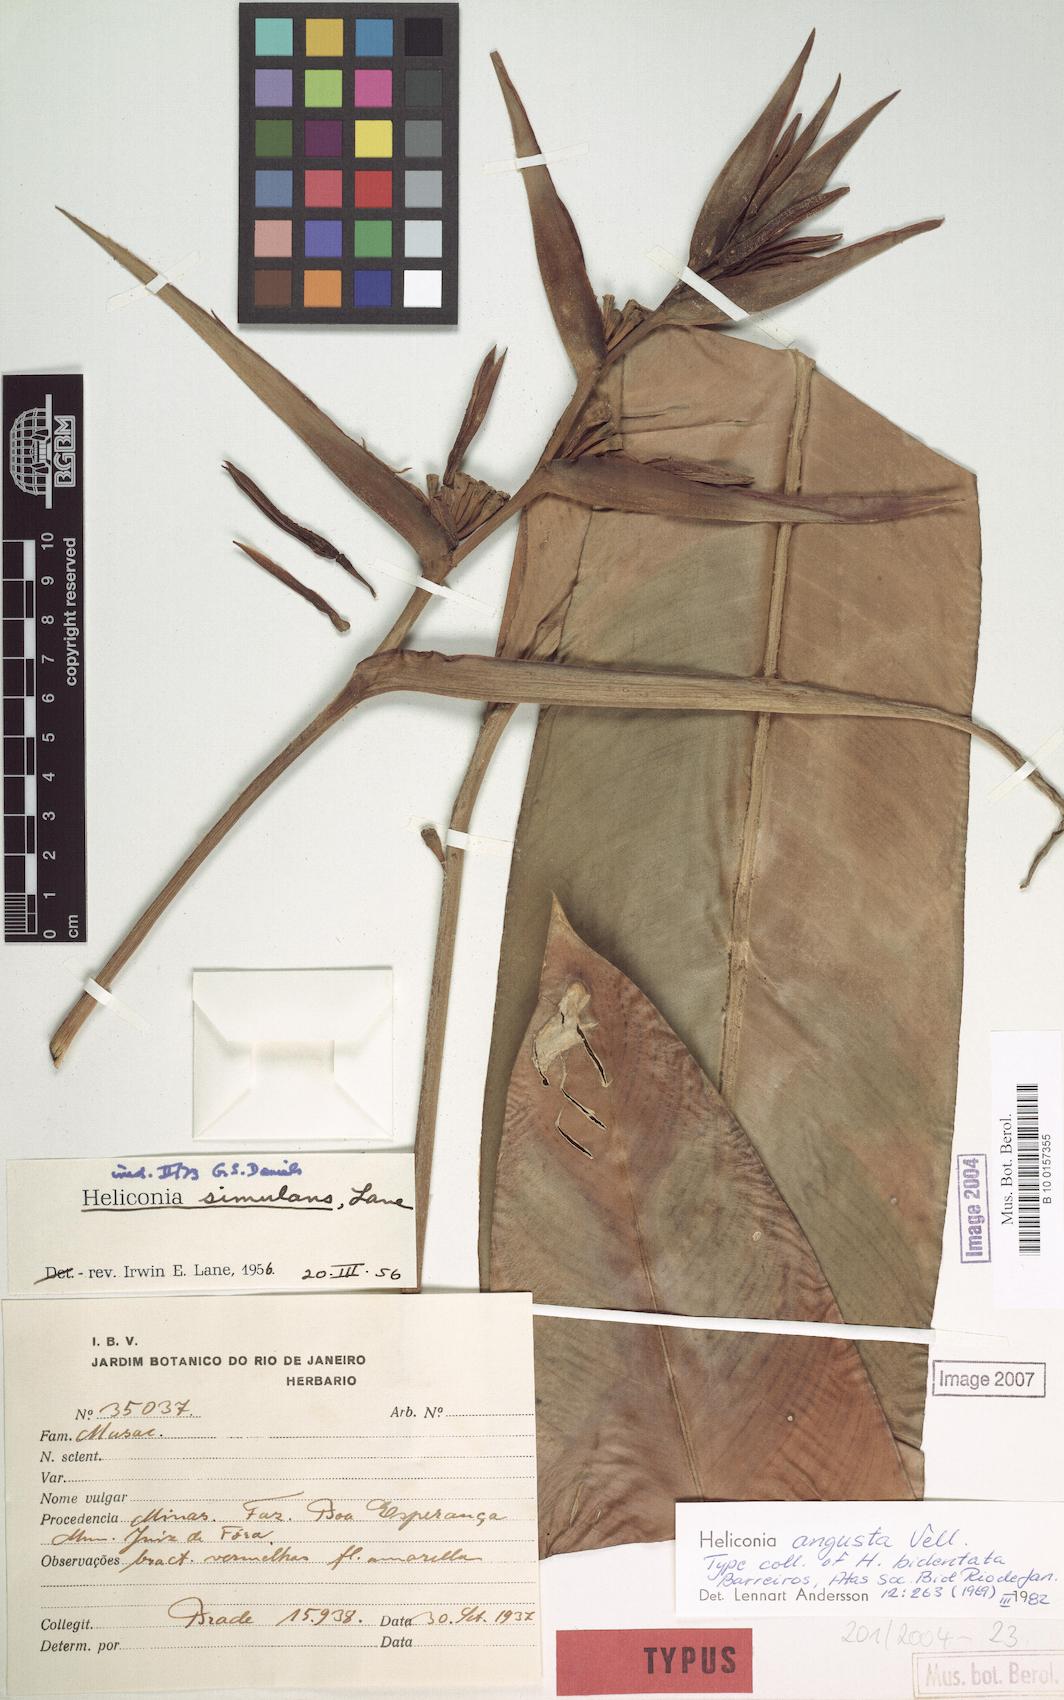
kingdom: Plantae
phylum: Tracheophyta
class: Liliopsida
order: Zingiberales
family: Heliconiaceae
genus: Heliconia
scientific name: Heliconia angusta
